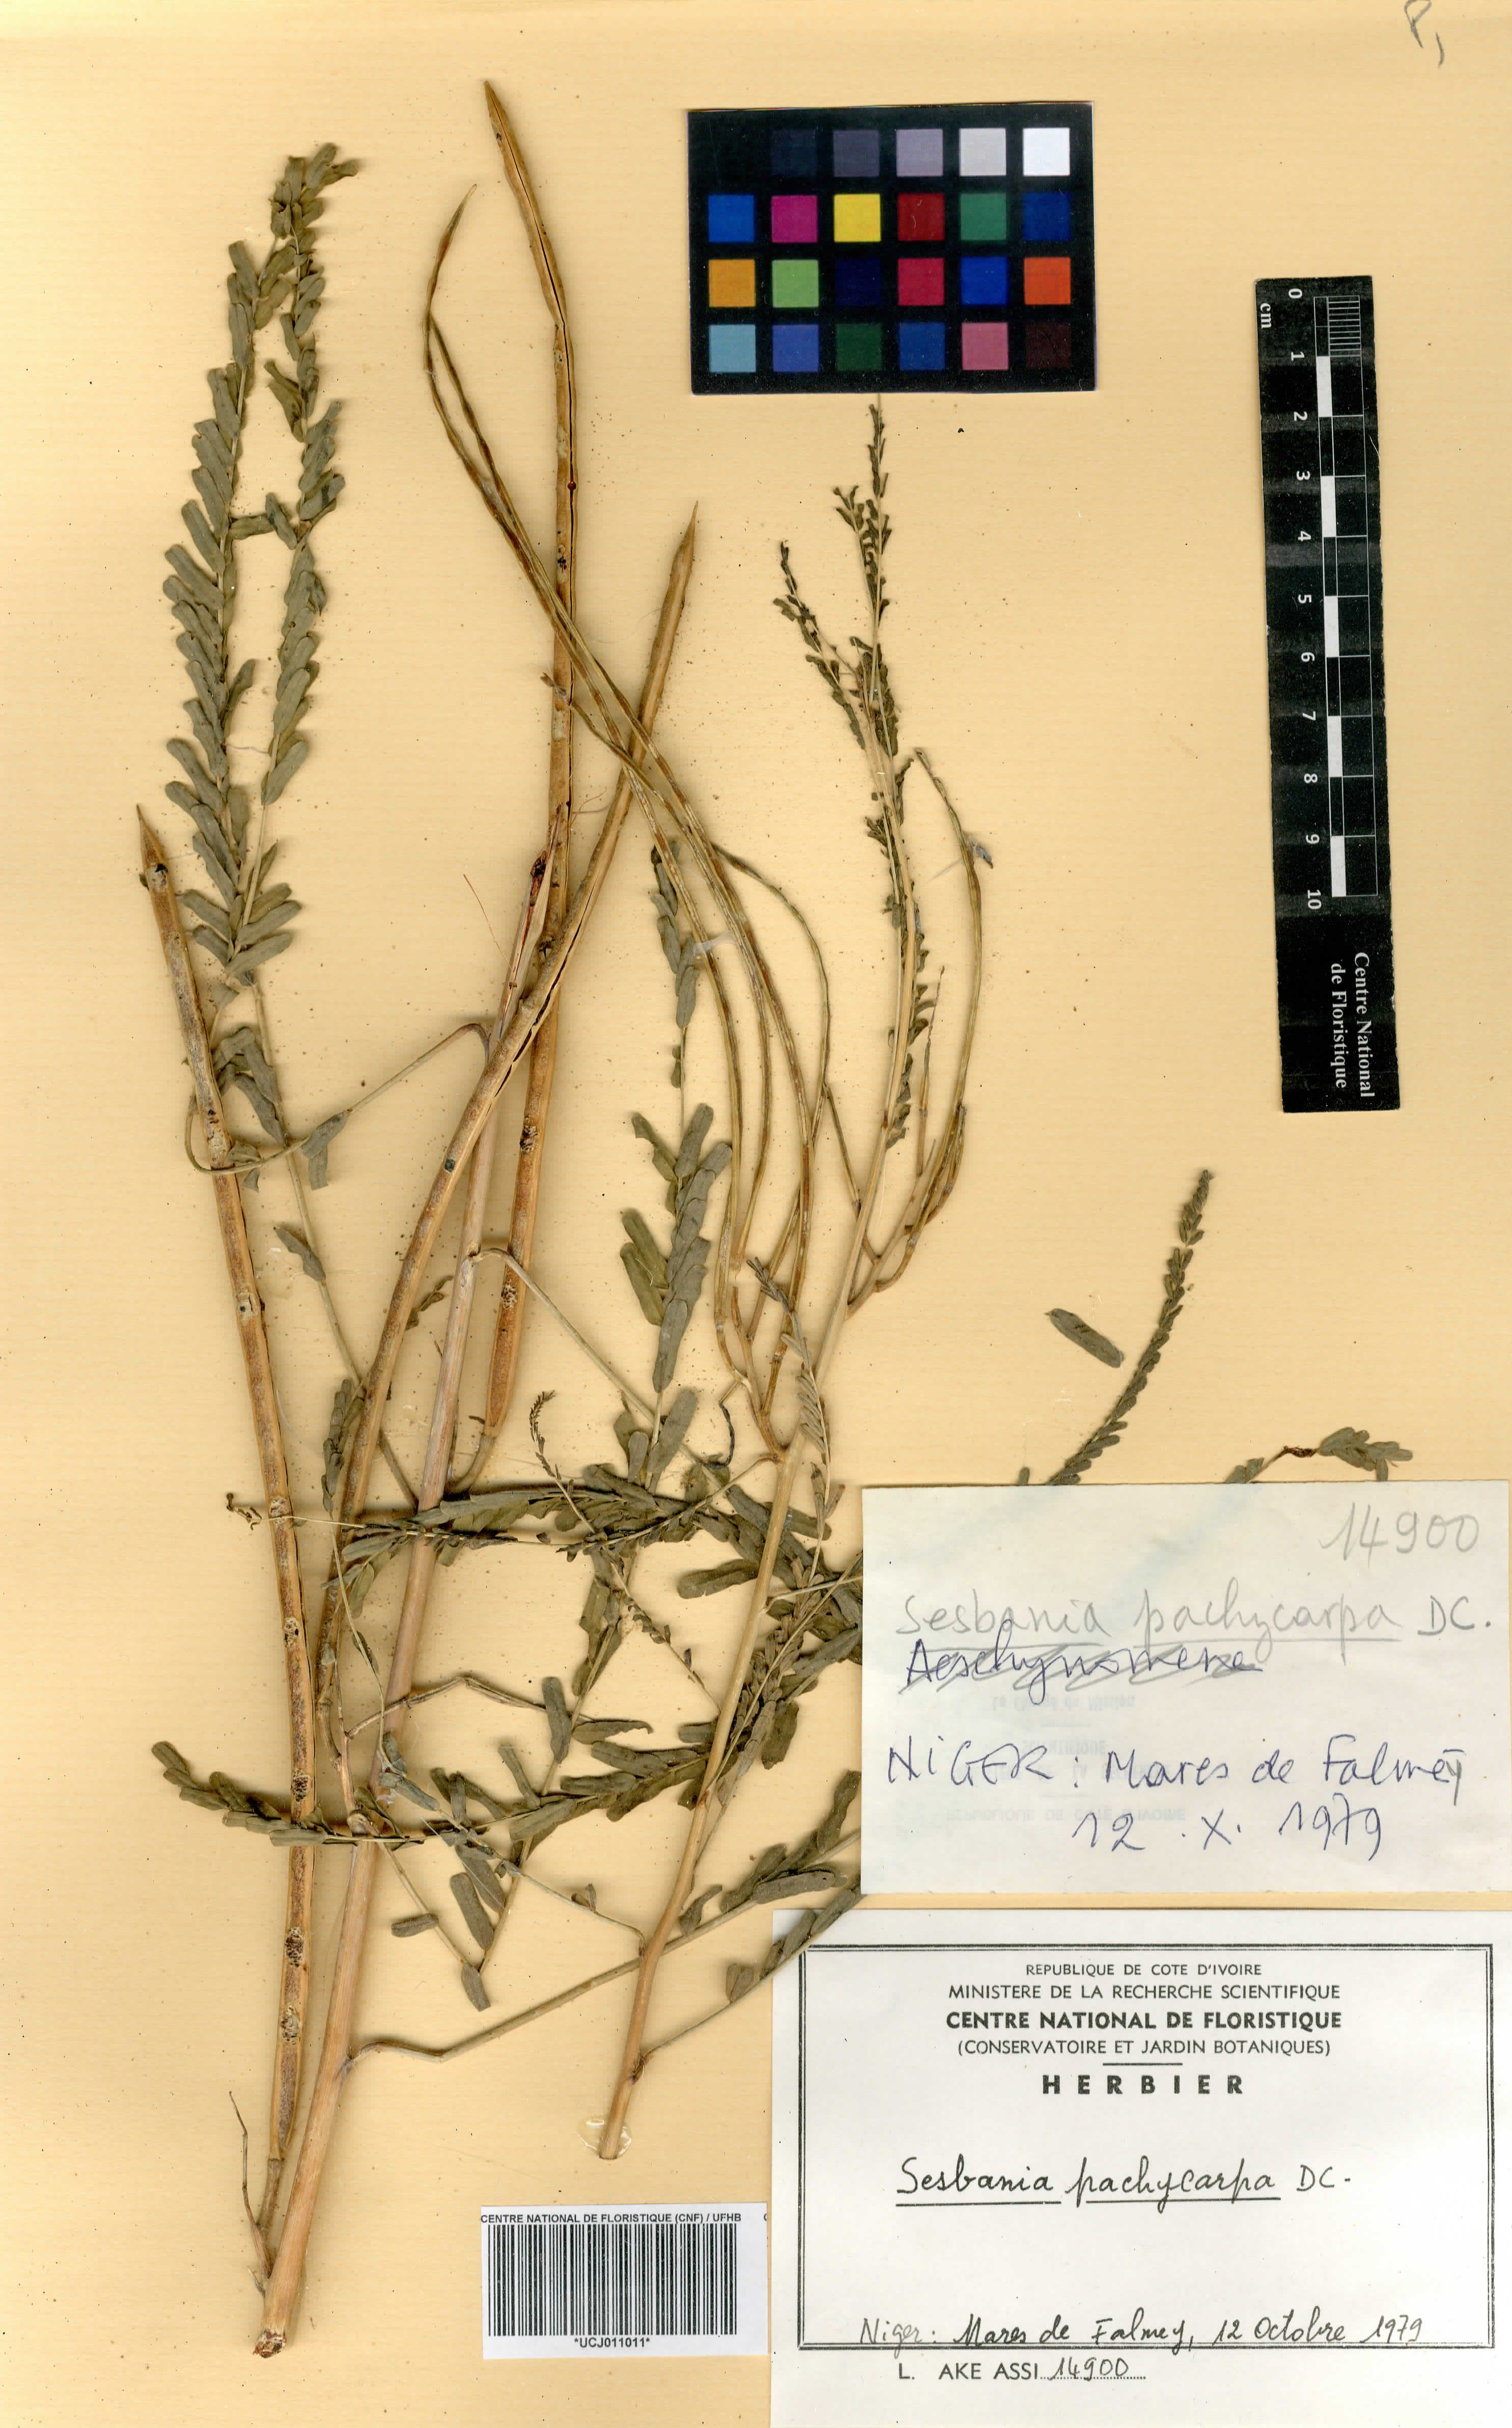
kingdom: Plantae
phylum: Tracheophyta
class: Magnoliopsida
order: Fabales
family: Fabaceae
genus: Sesbania
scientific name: Sesbania pachycarpa
